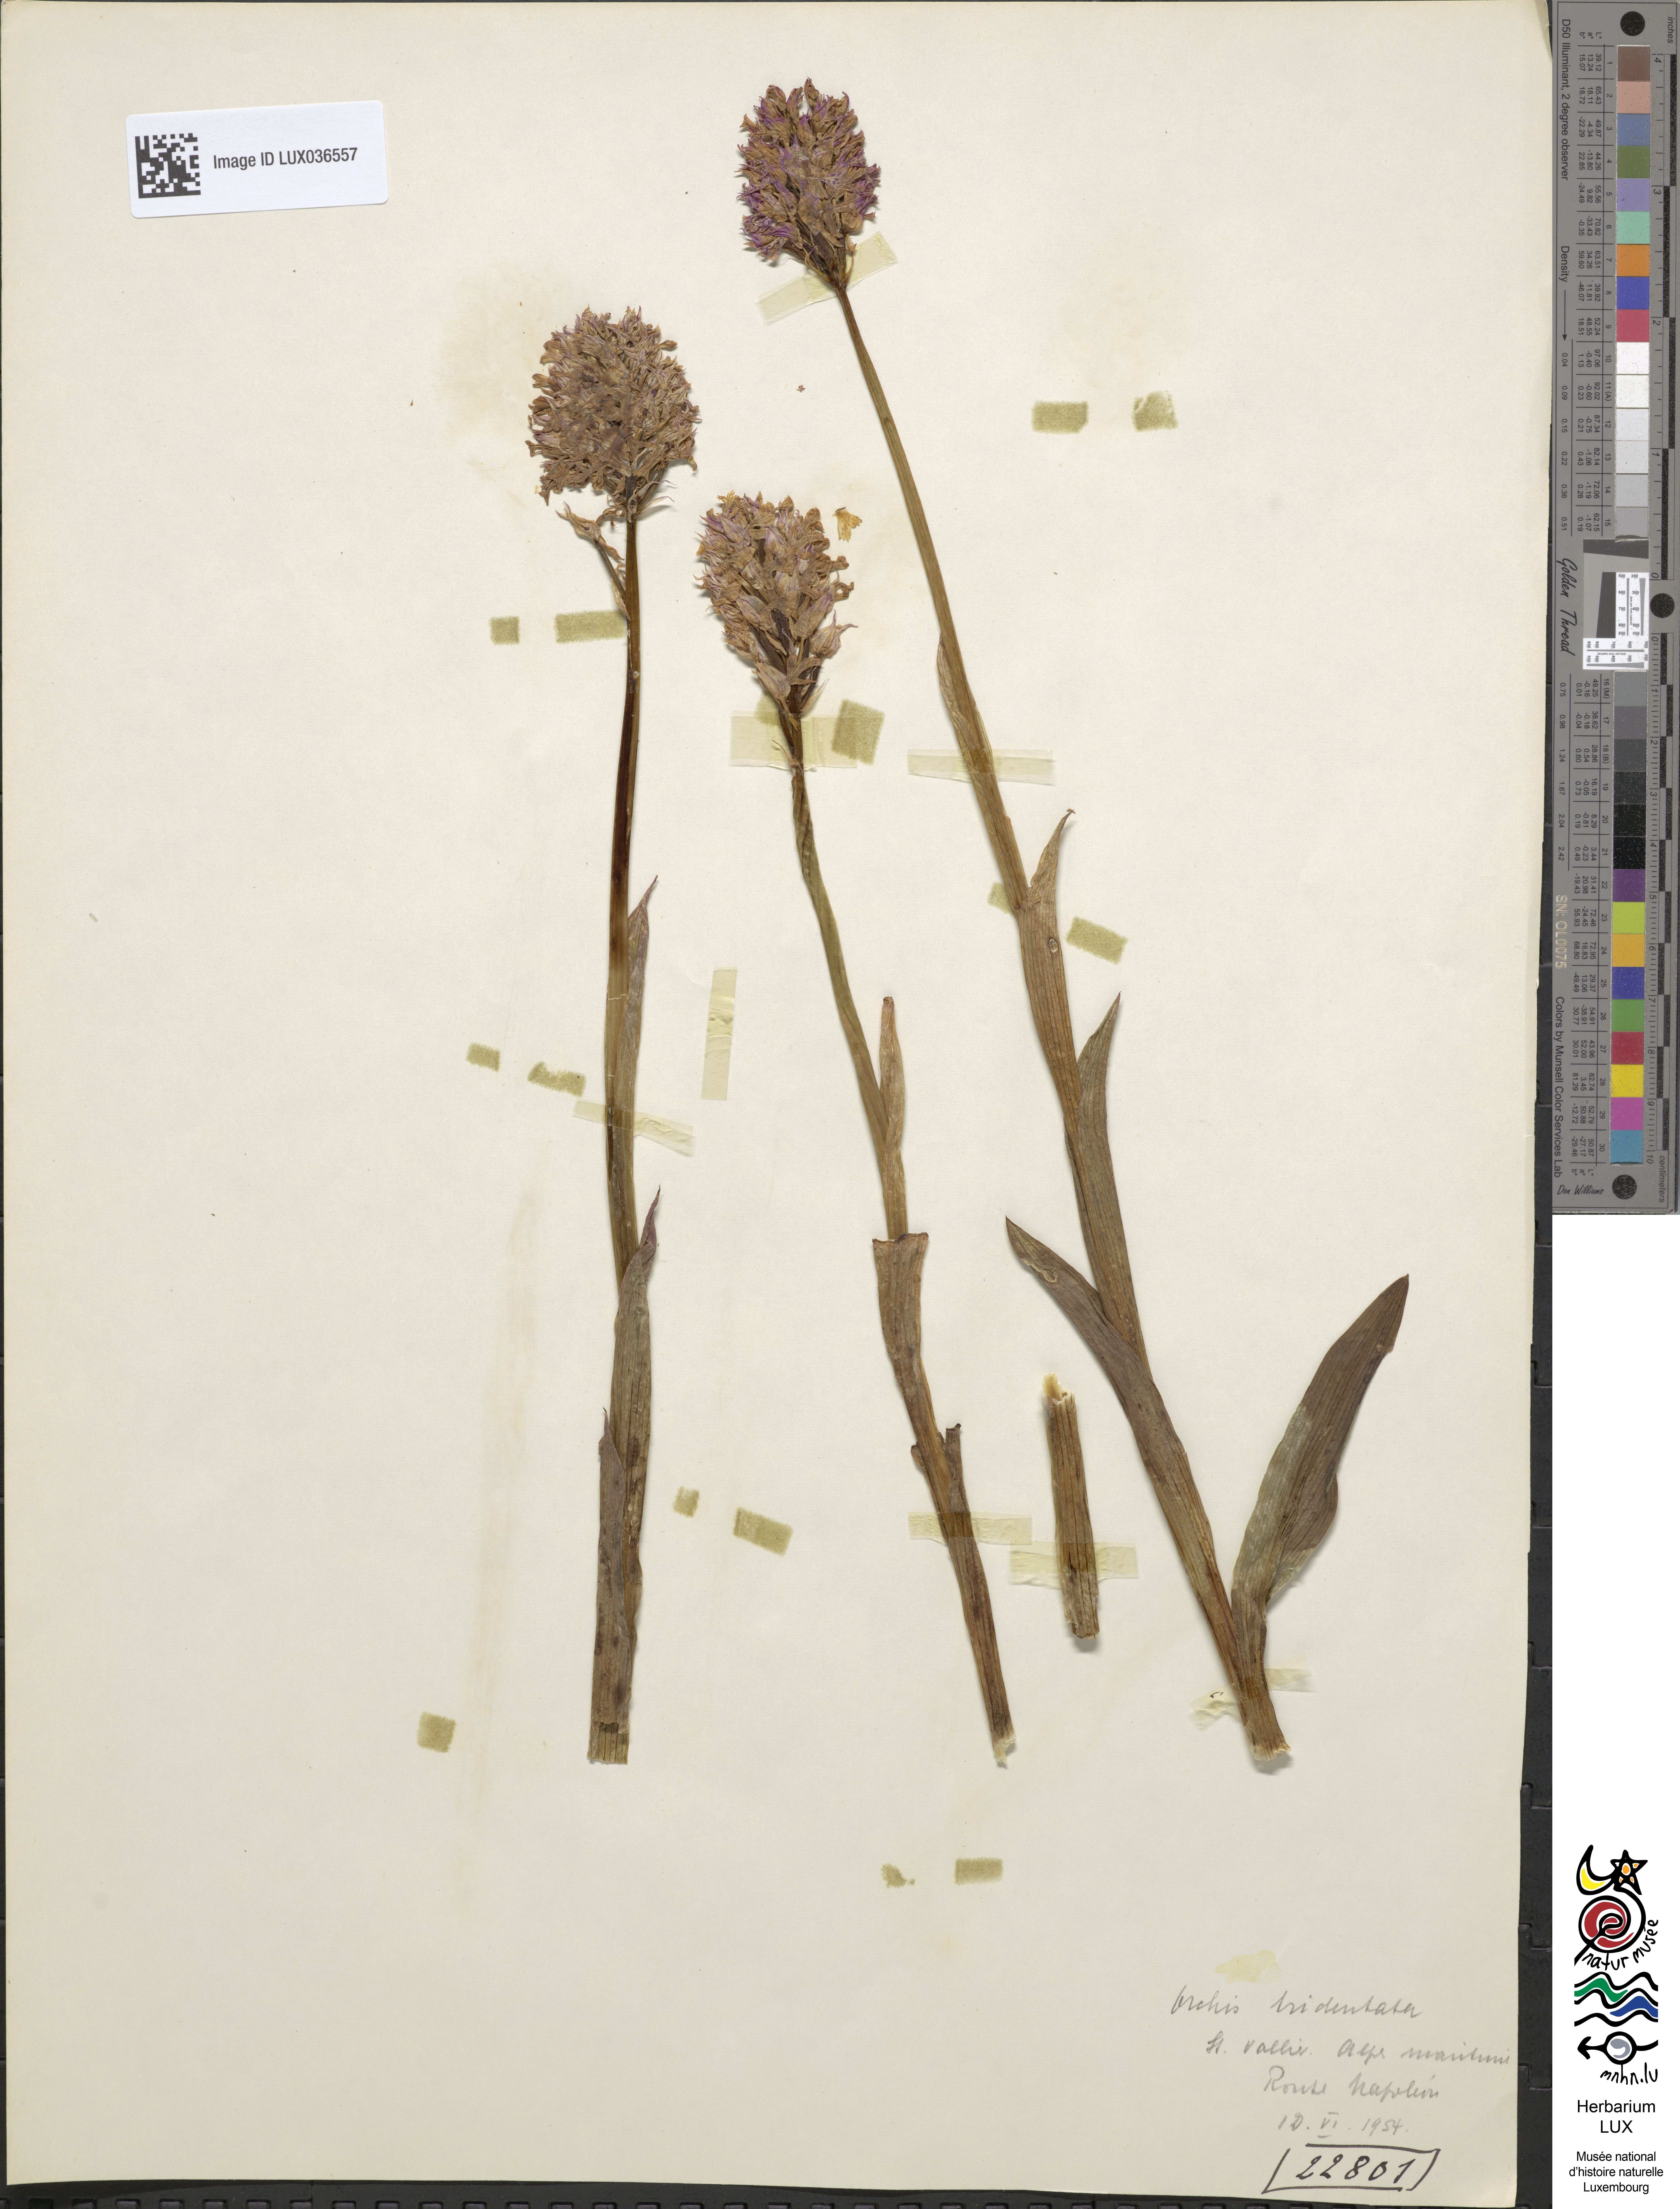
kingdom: Plantae
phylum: Tracheophyta
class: Liliopsida
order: Asparagales
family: Orchidaceae
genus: Neotinea
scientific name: Neotinea tridentata
